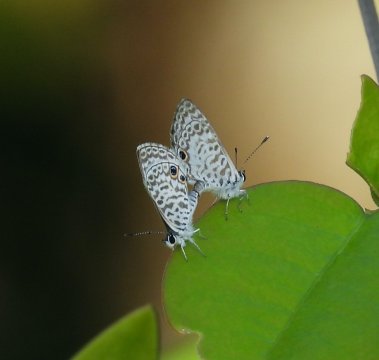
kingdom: Animalia
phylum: Arthropoda
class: Insecta
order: Lepidoptera
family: Lycaenidae
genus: Leptotes
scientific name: Leptotes cassius
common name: Cassius Blue
